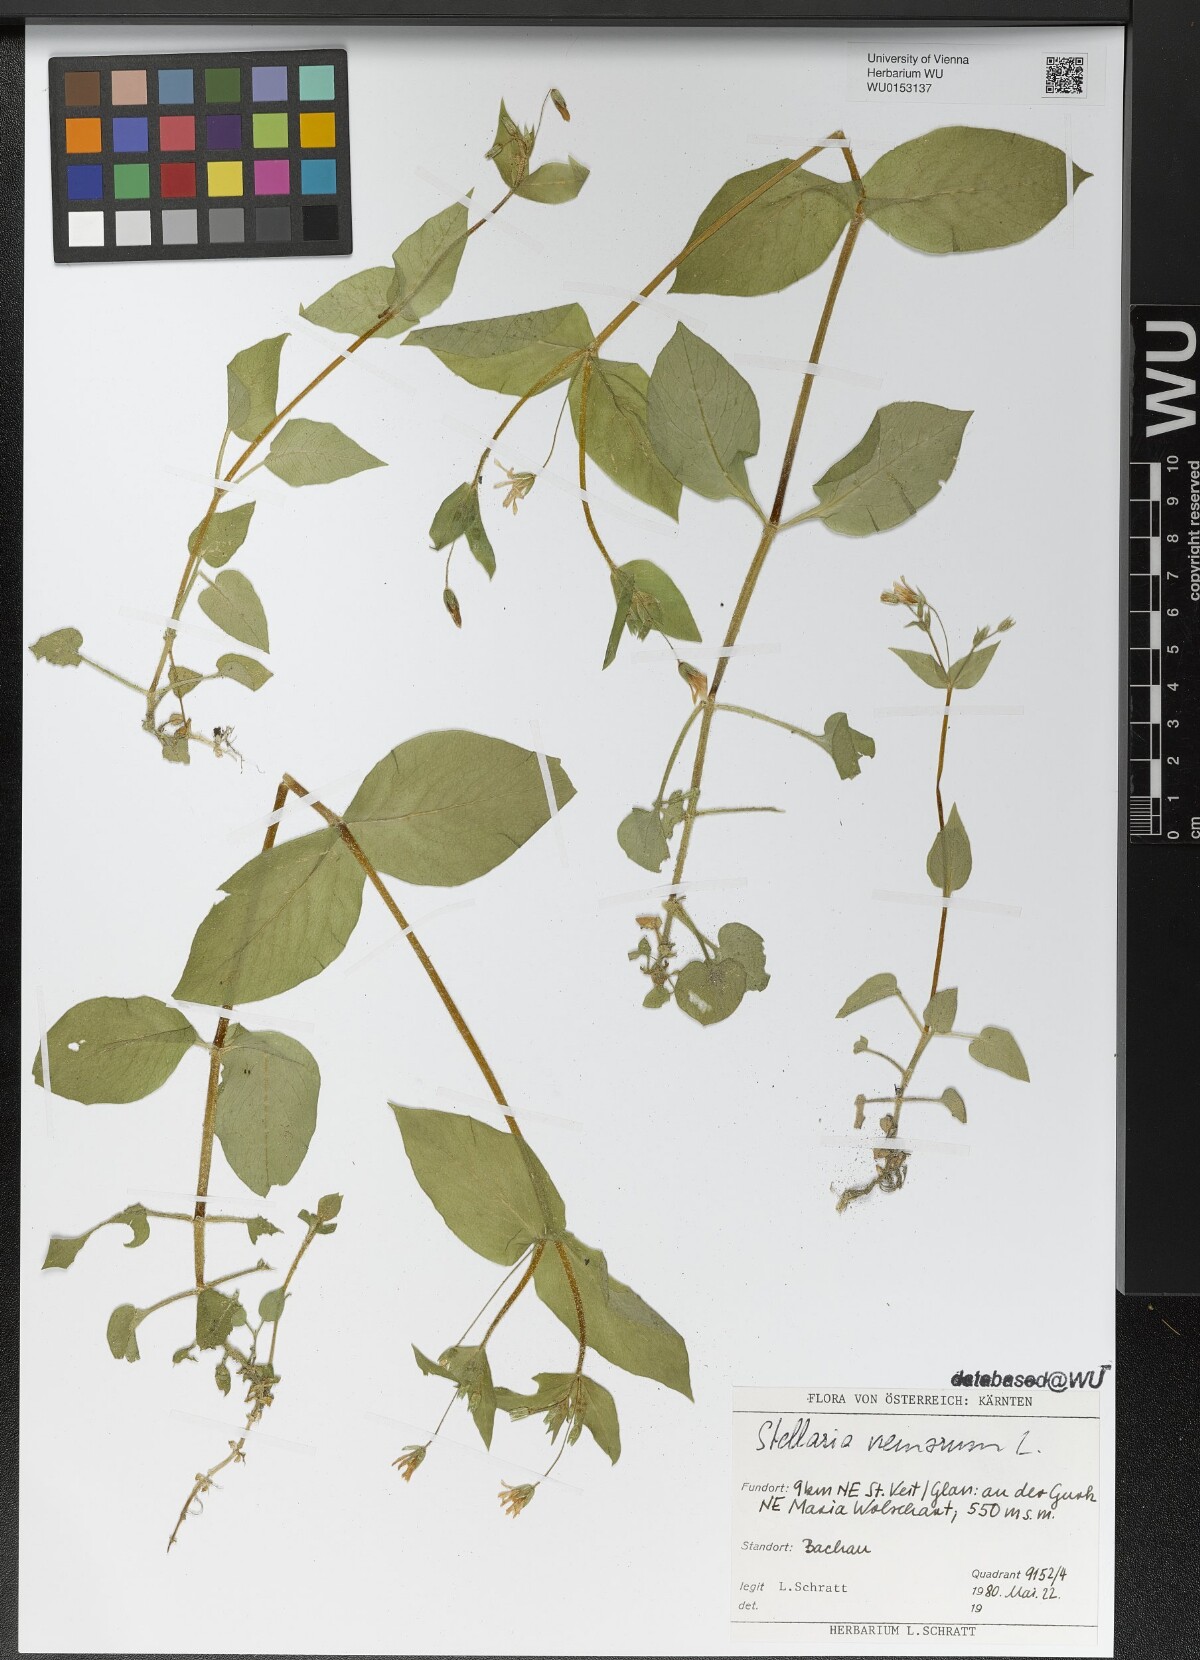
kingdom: Plantae
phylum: Tracheophyta
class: Magnoliopsida
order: Caryophyllales
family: Caryophyllaceae
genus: Stellaria
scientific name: Stellaria nemorum
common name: Wood stitchwort
